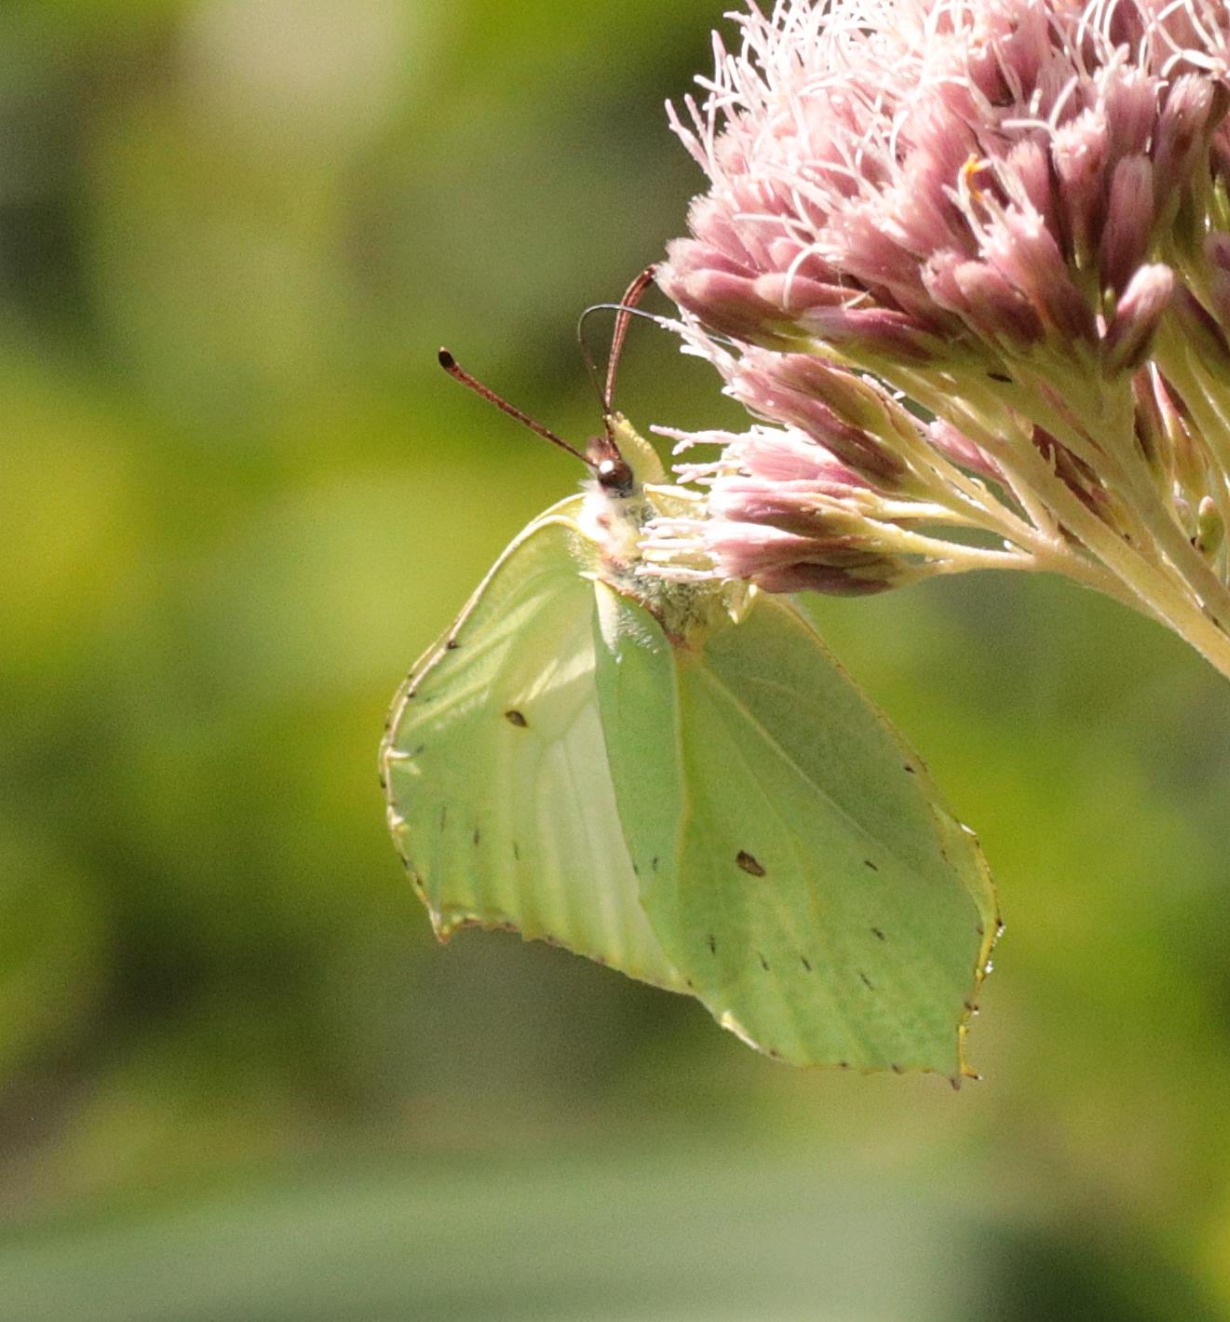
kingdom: Animalia
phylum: Arthropoda
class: Insecta
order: Lepidoptera
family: Pieridae
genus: Gonepteryx
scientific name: Gonepteryx rhamni
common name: Citronsommerfugl
